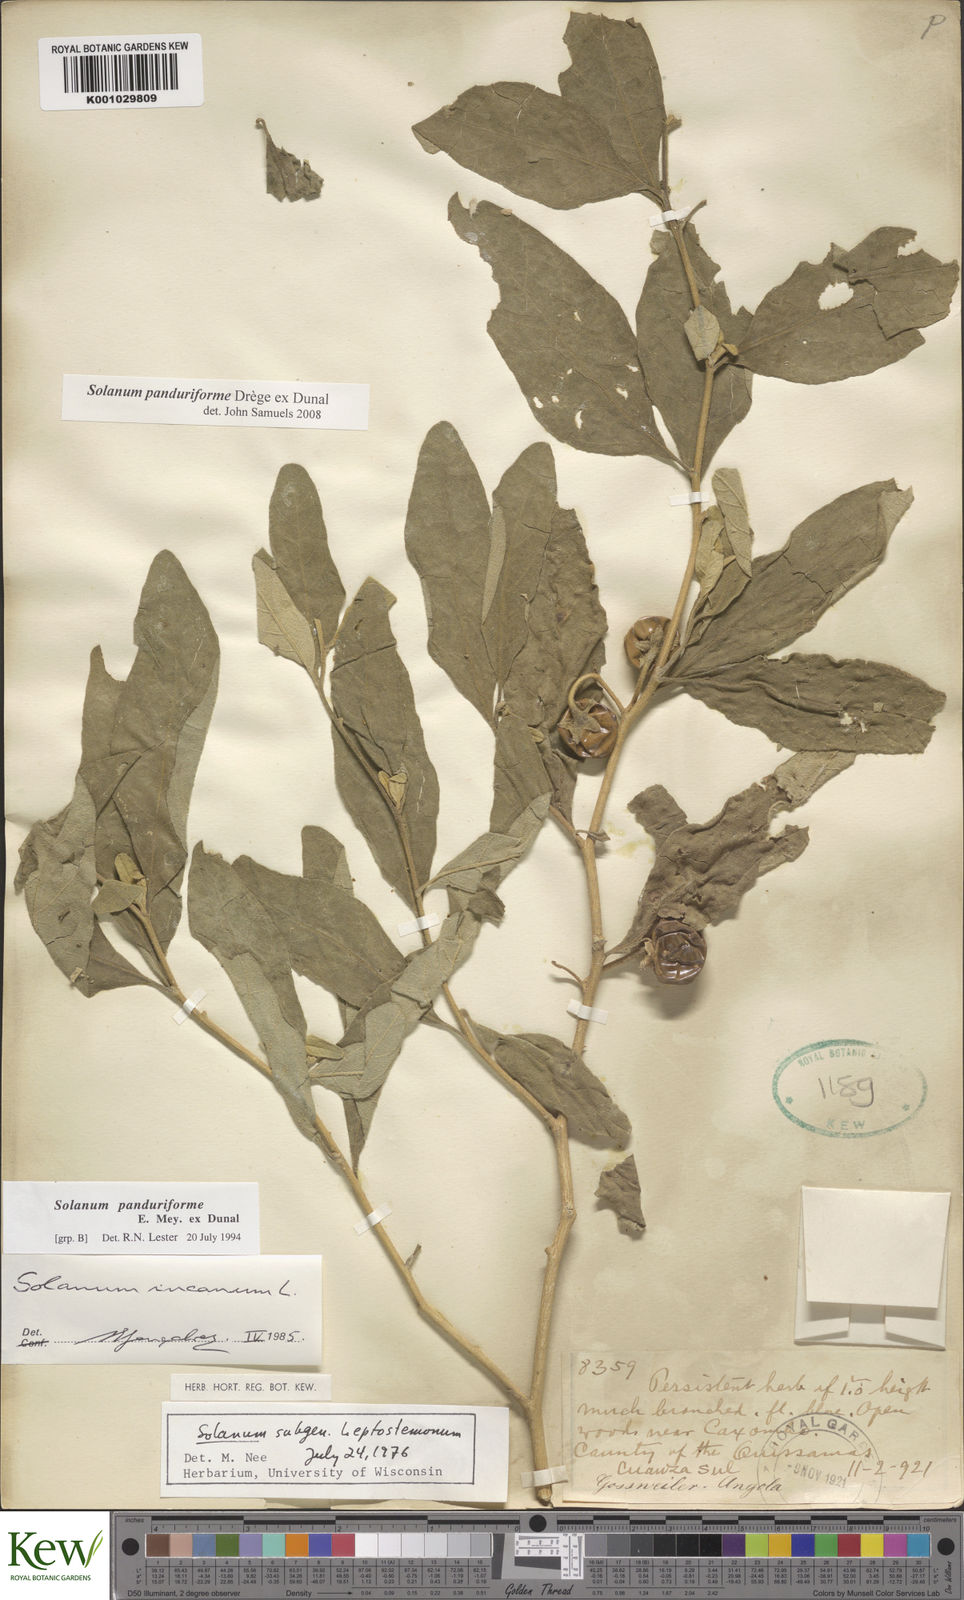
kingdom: Plantae
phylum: Tracheophyta
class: Magnoliopsida
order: Solanales
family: Solanaceae
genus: Solanum
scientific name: Solanum campylacanthum
